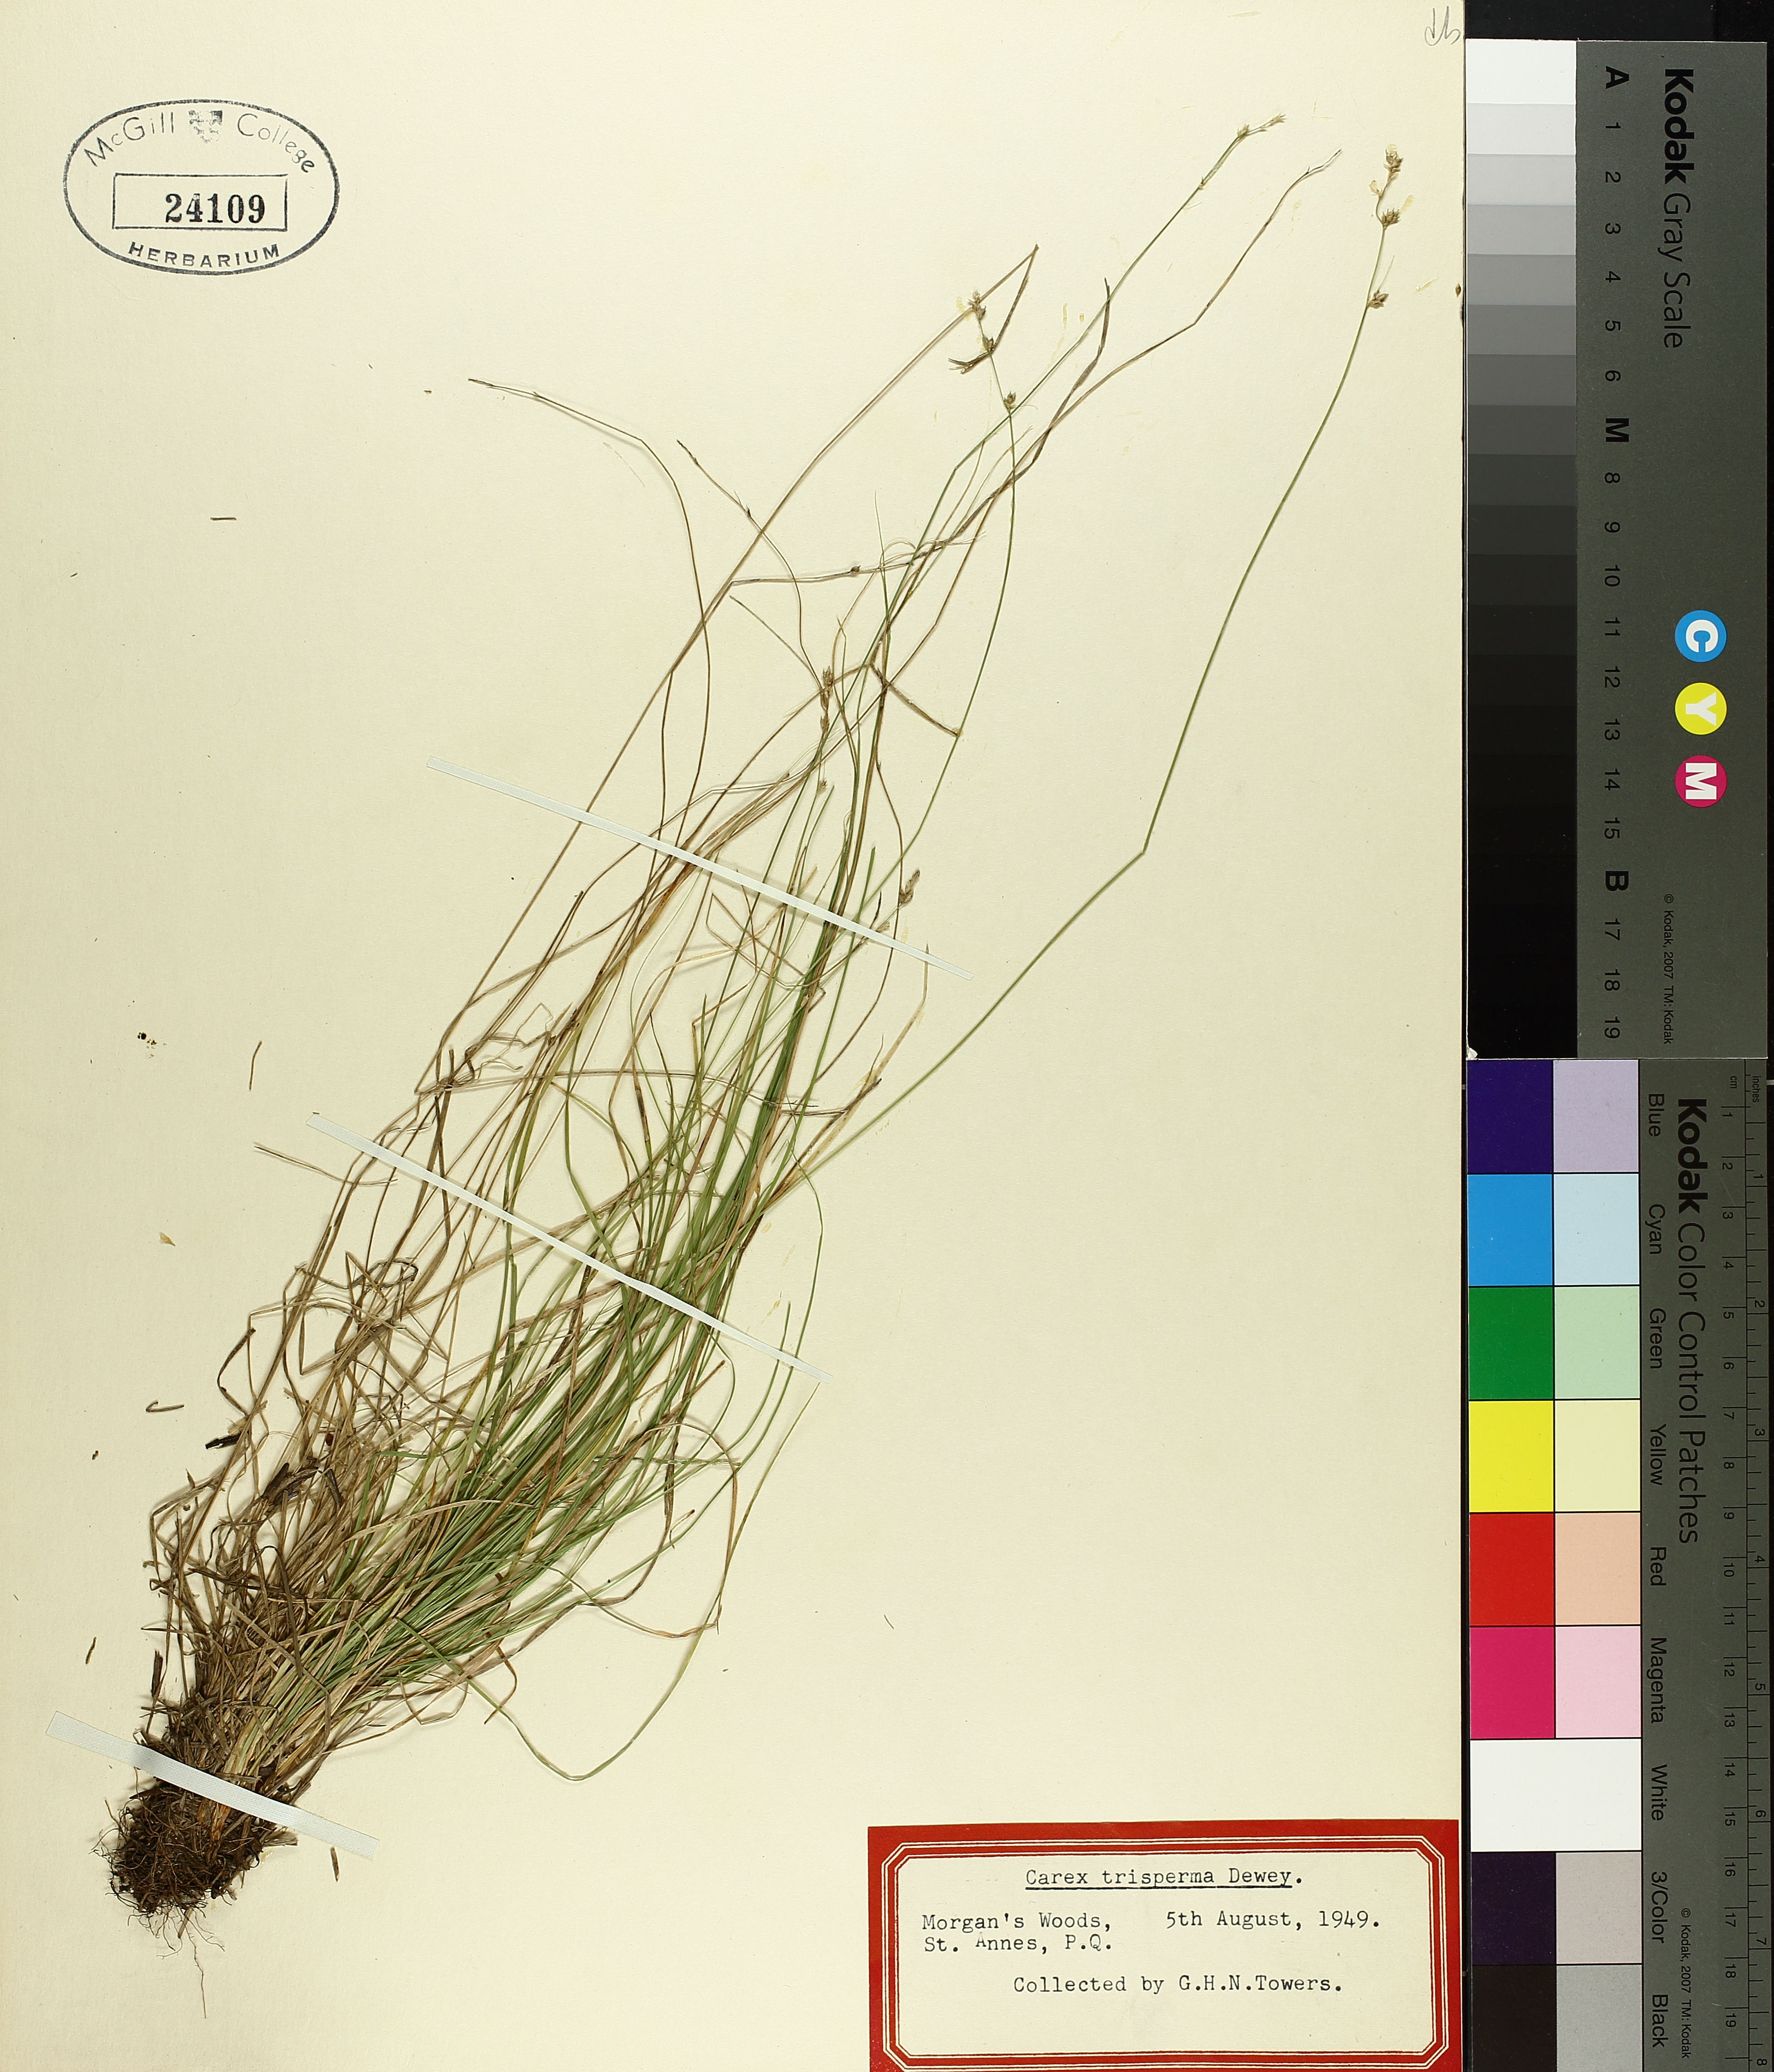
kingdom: Plantae
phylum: Tracheophyta
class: Liliopsida
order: Poales
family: Cyperaceae
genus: Carex
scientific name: Carex trisperma
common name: Three-seeded sedge
